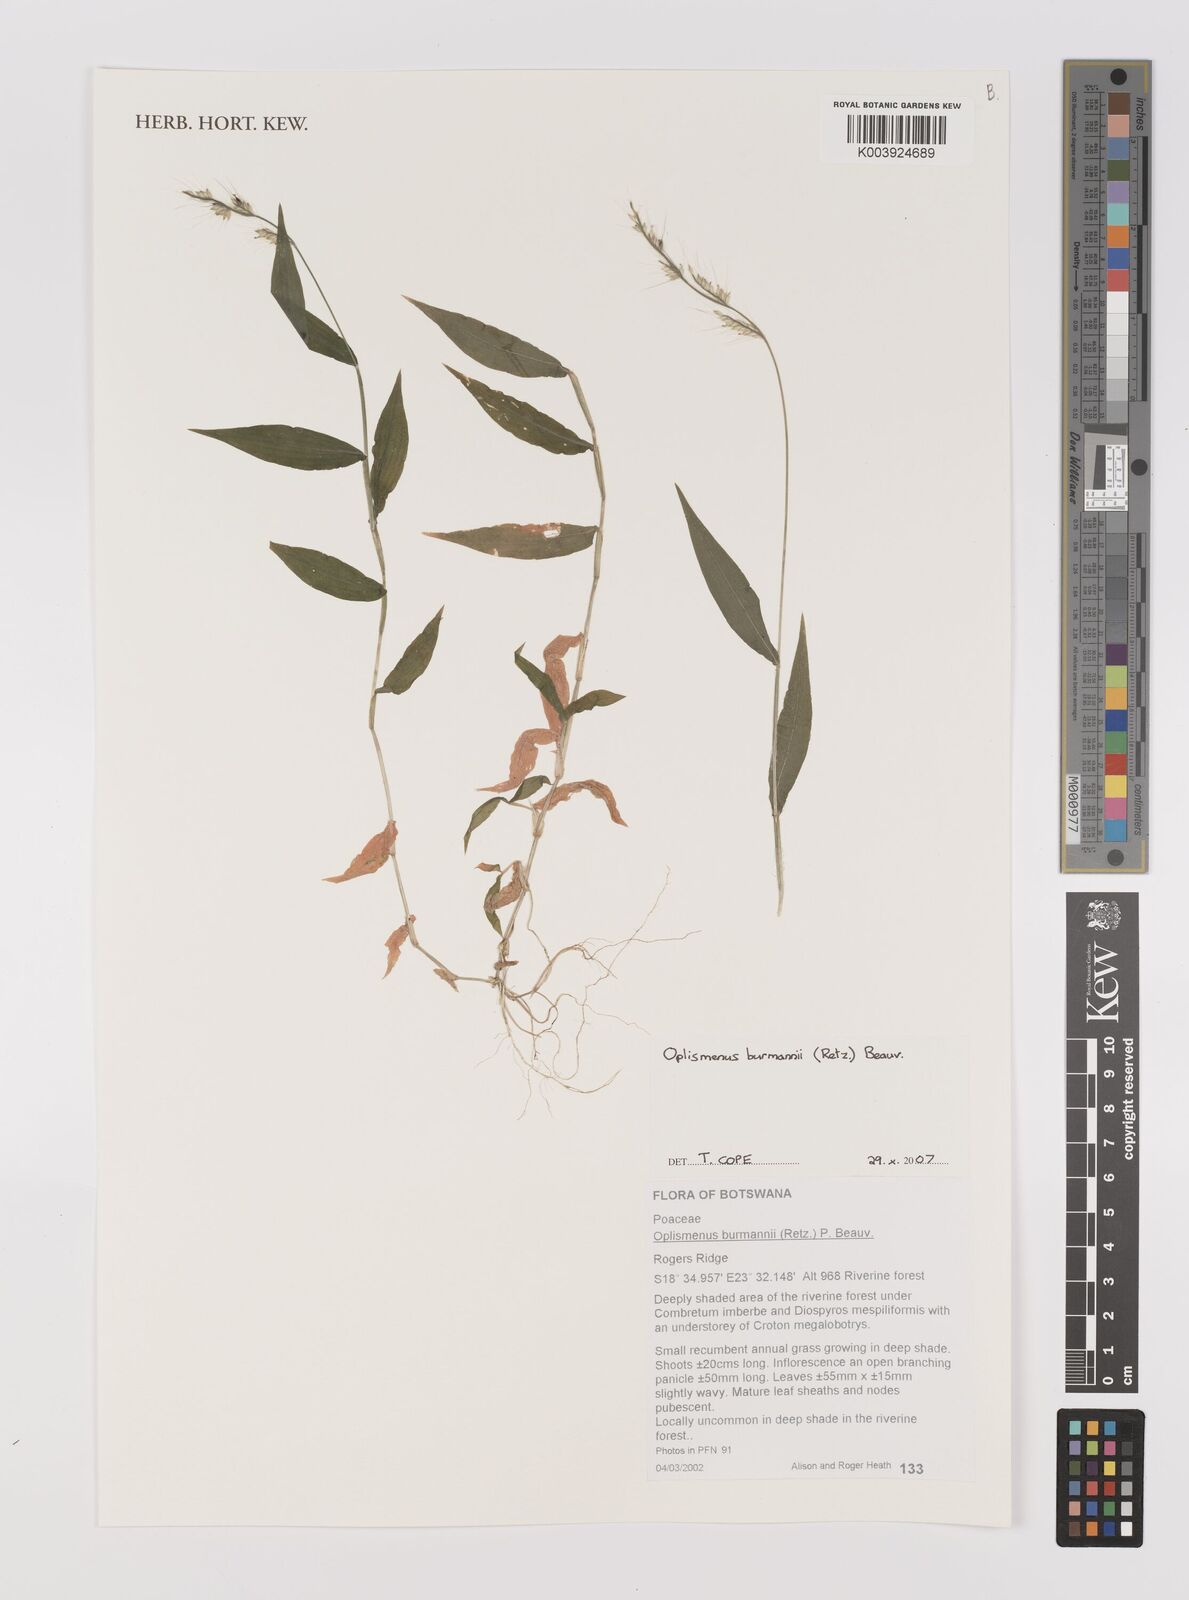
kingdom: Plantae
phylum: Tracheophyta
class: Liliopsida
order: Poales
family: Poaceae
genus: Oplismenus
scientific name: Oplismenus burmanni
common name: Burmann's basketgrass
